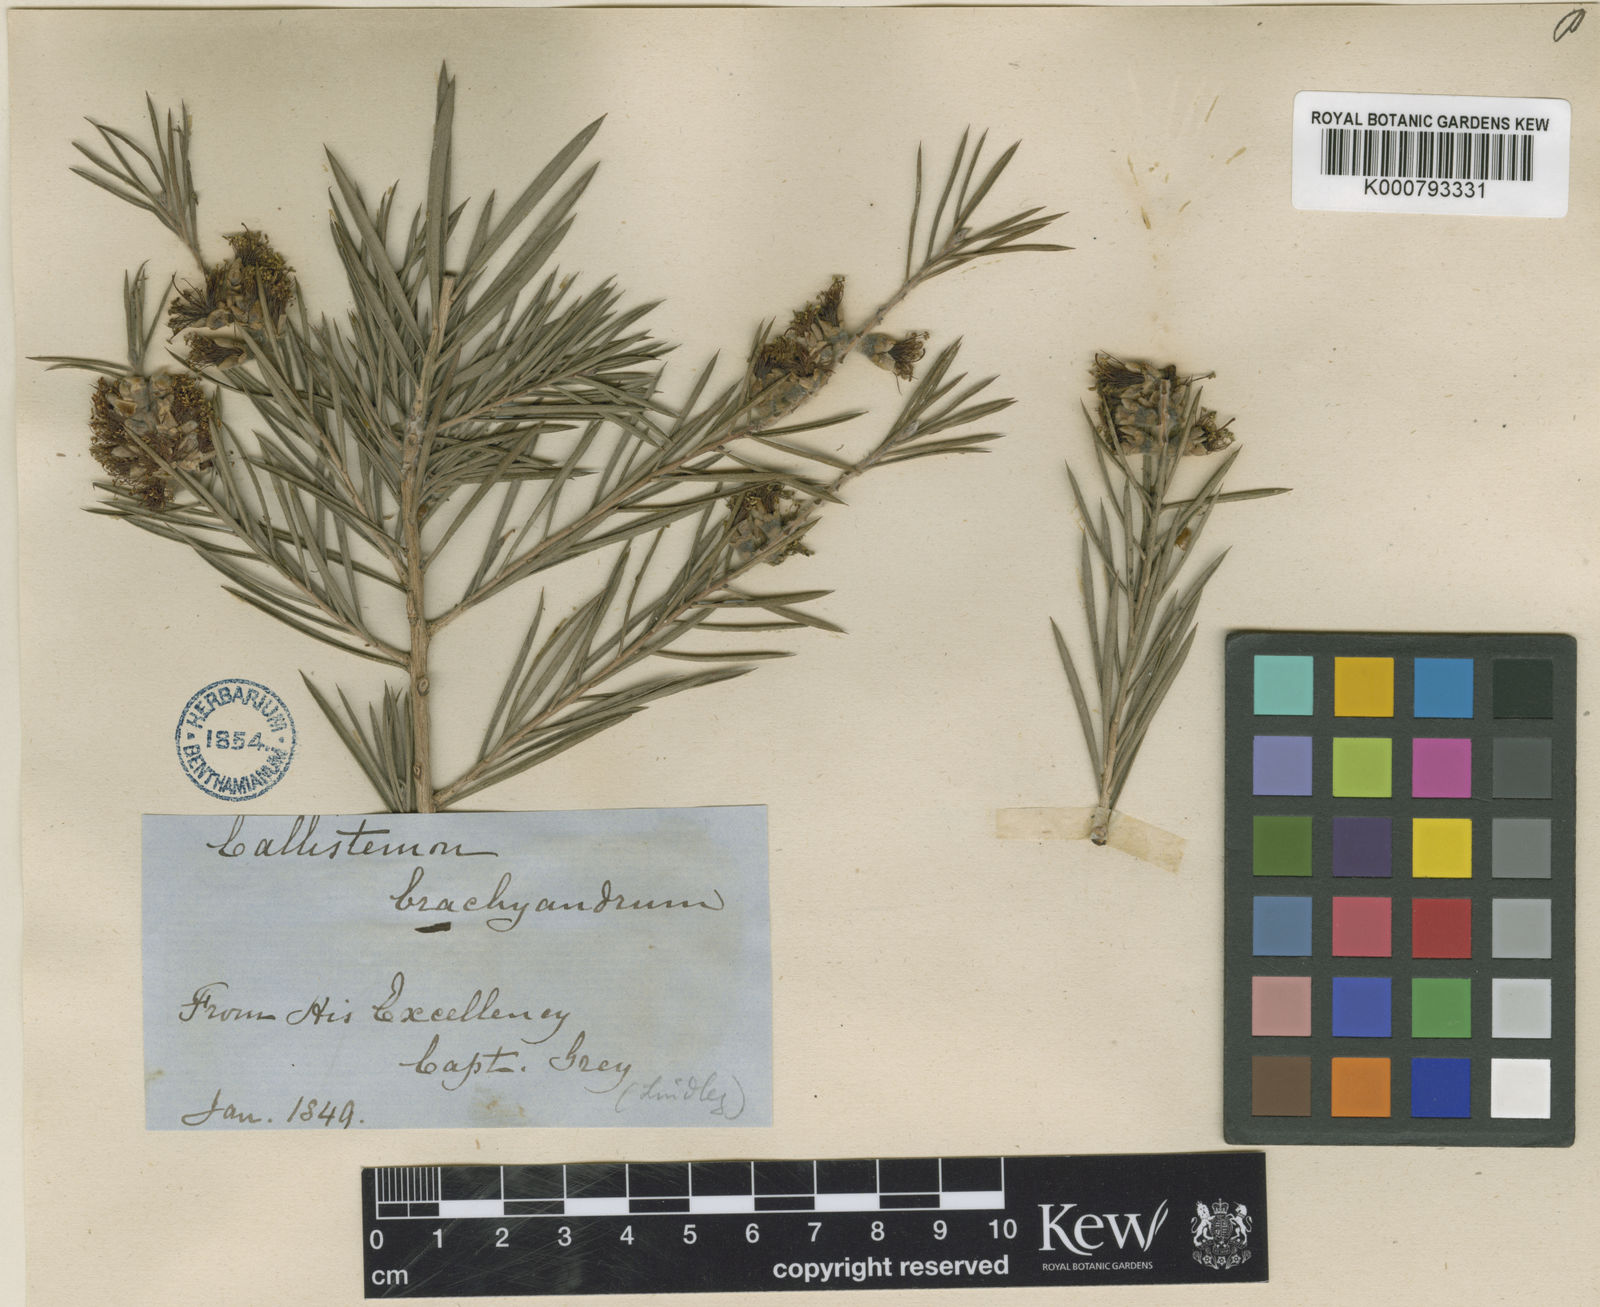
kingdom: Plantae
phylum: Tracheophyta
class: Magnoliopsida
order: Myrtales
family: Myrtaceae
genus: Callistemon
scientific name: Callistemon brachyandrus
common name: Prickly bottlebrush
